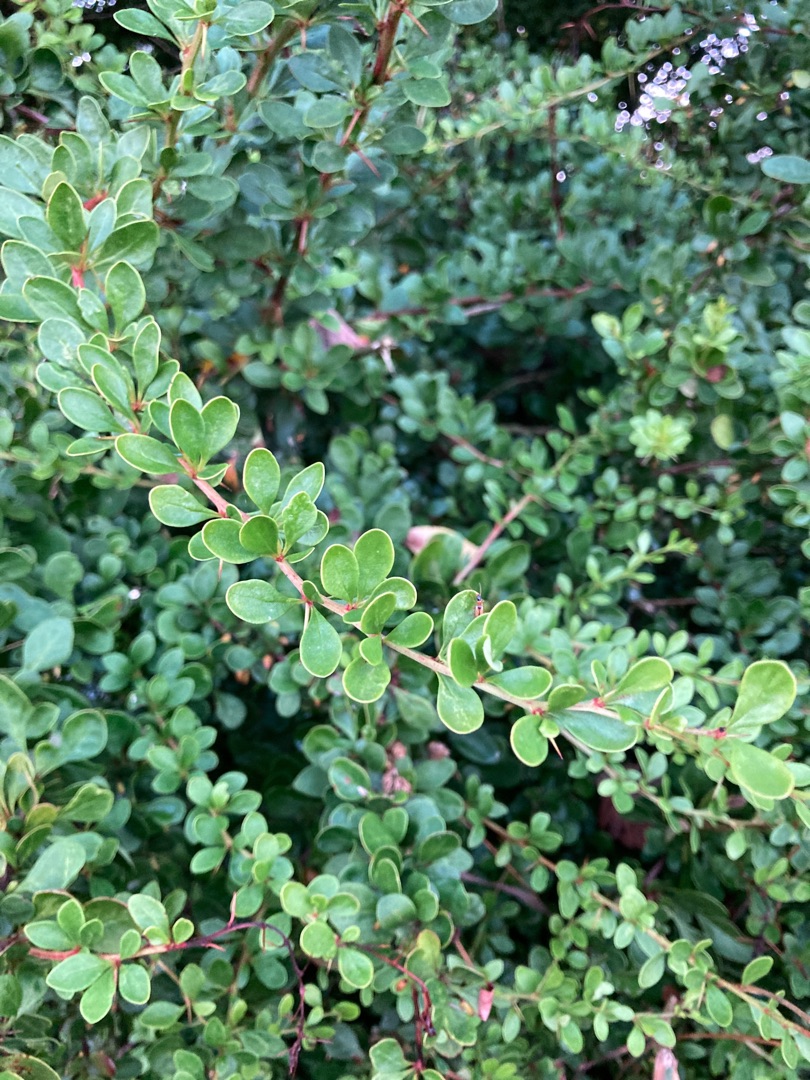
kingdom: Plantae
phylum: Tracheophyta
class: Magnoliopsida
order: Ranunculales
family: Berberidaceae
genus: Berberis
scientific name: Berberis thunbergii
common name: Hæk-berberis
